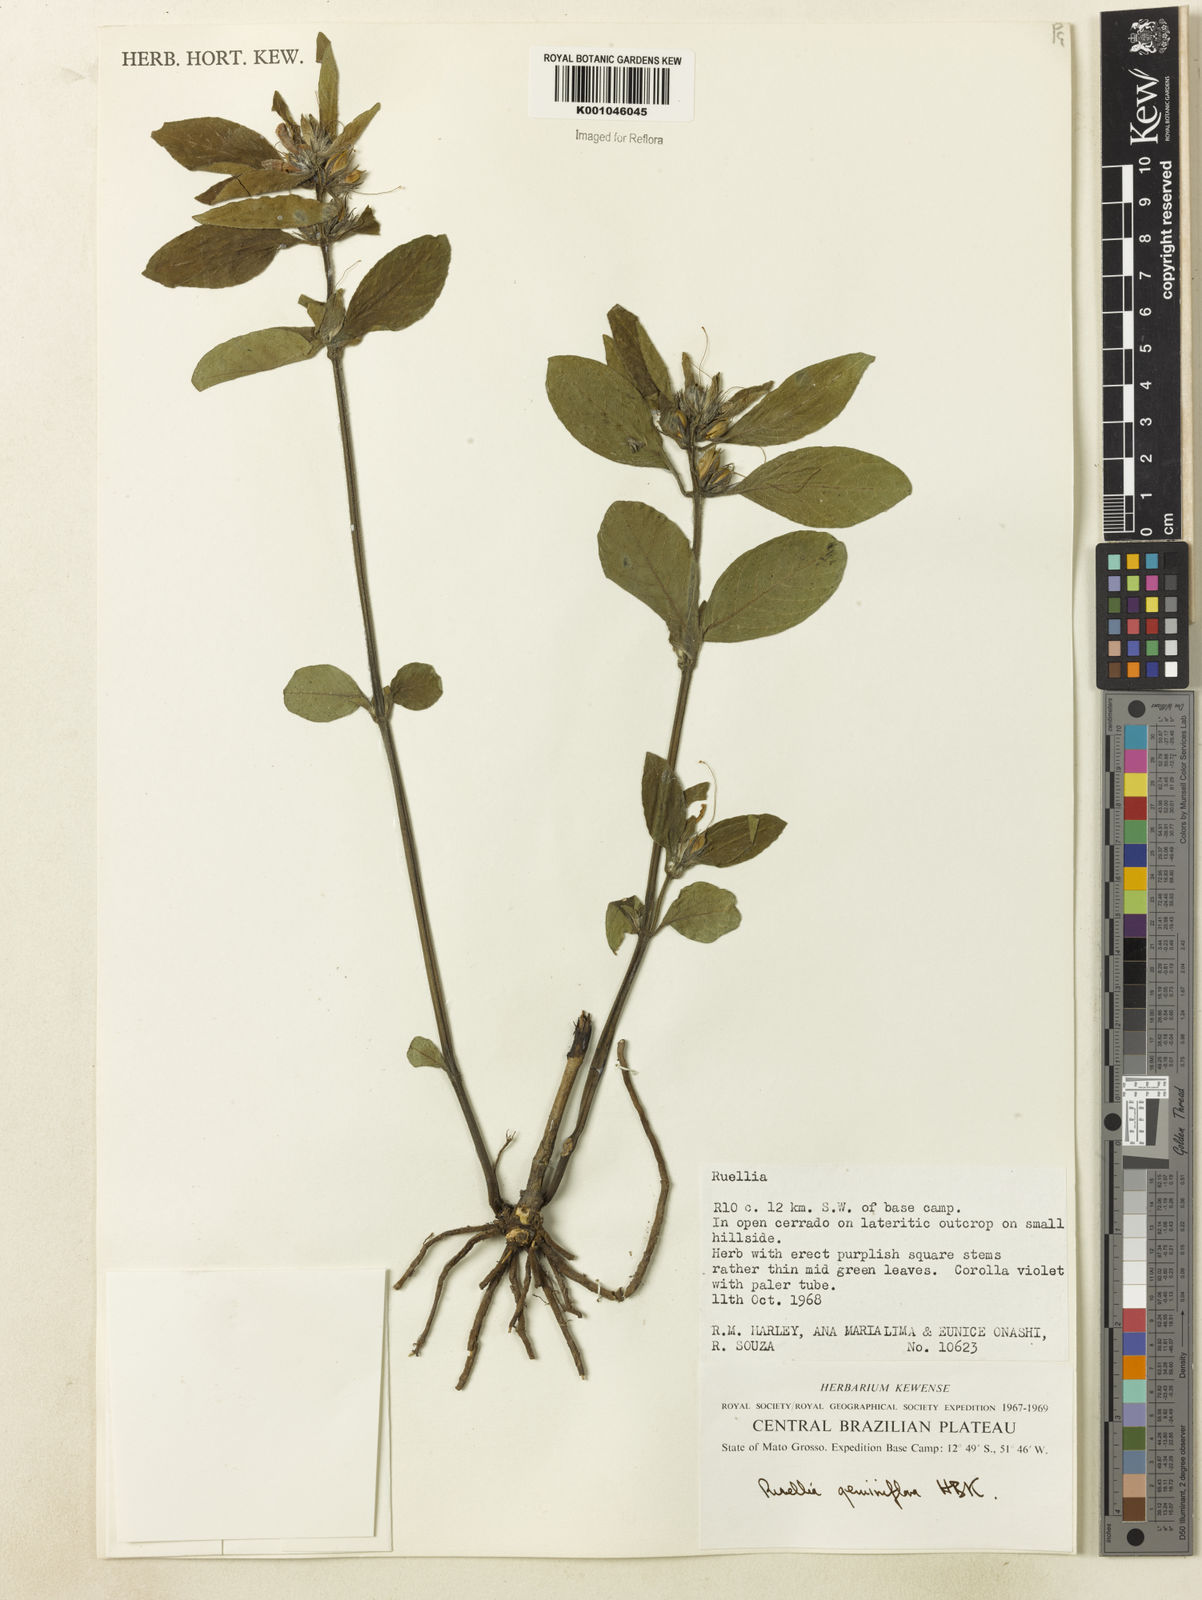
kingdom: Plantae
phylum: Tracheophyta
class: Magnoliopsida
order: Lamiales
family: Acanthaceae
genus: Ruellia
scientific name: Ruellia geminiflora
